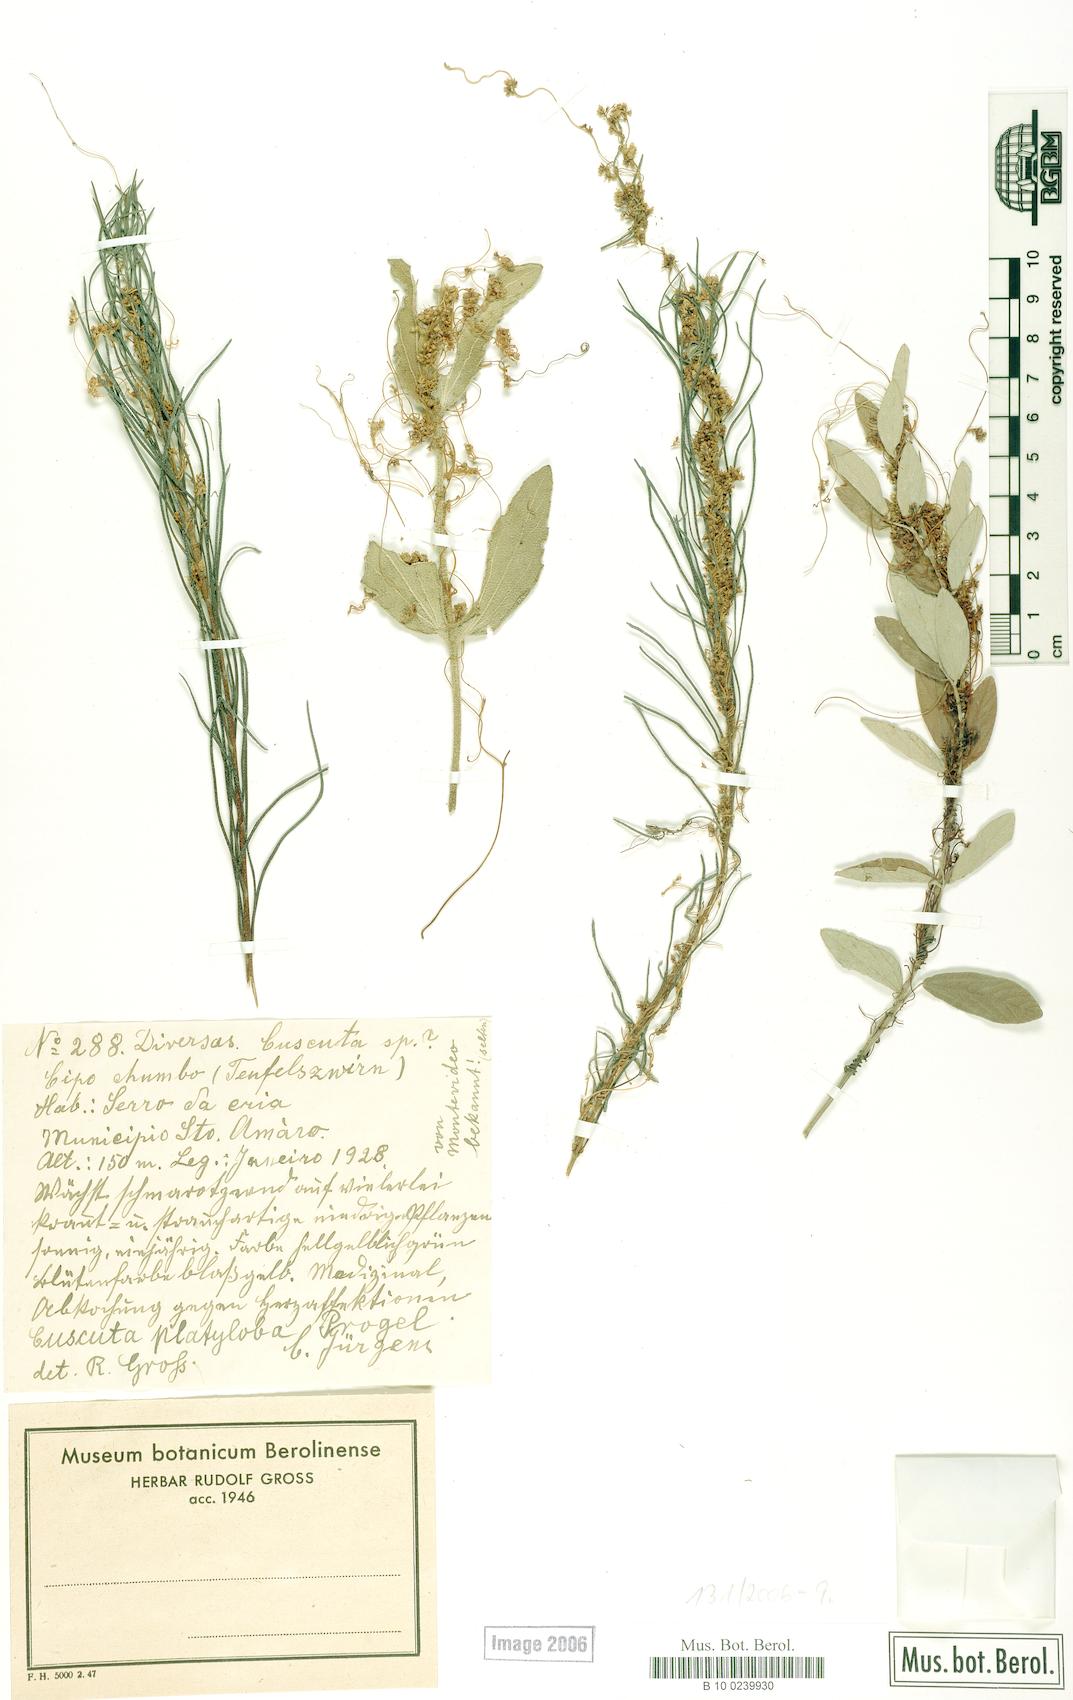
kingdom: Plantae
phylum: Tracheophyta
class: Magnoliopsida
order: Solanales
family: Convolvulaceae
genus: Cuscuta
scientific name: Cuscuta platyloba
